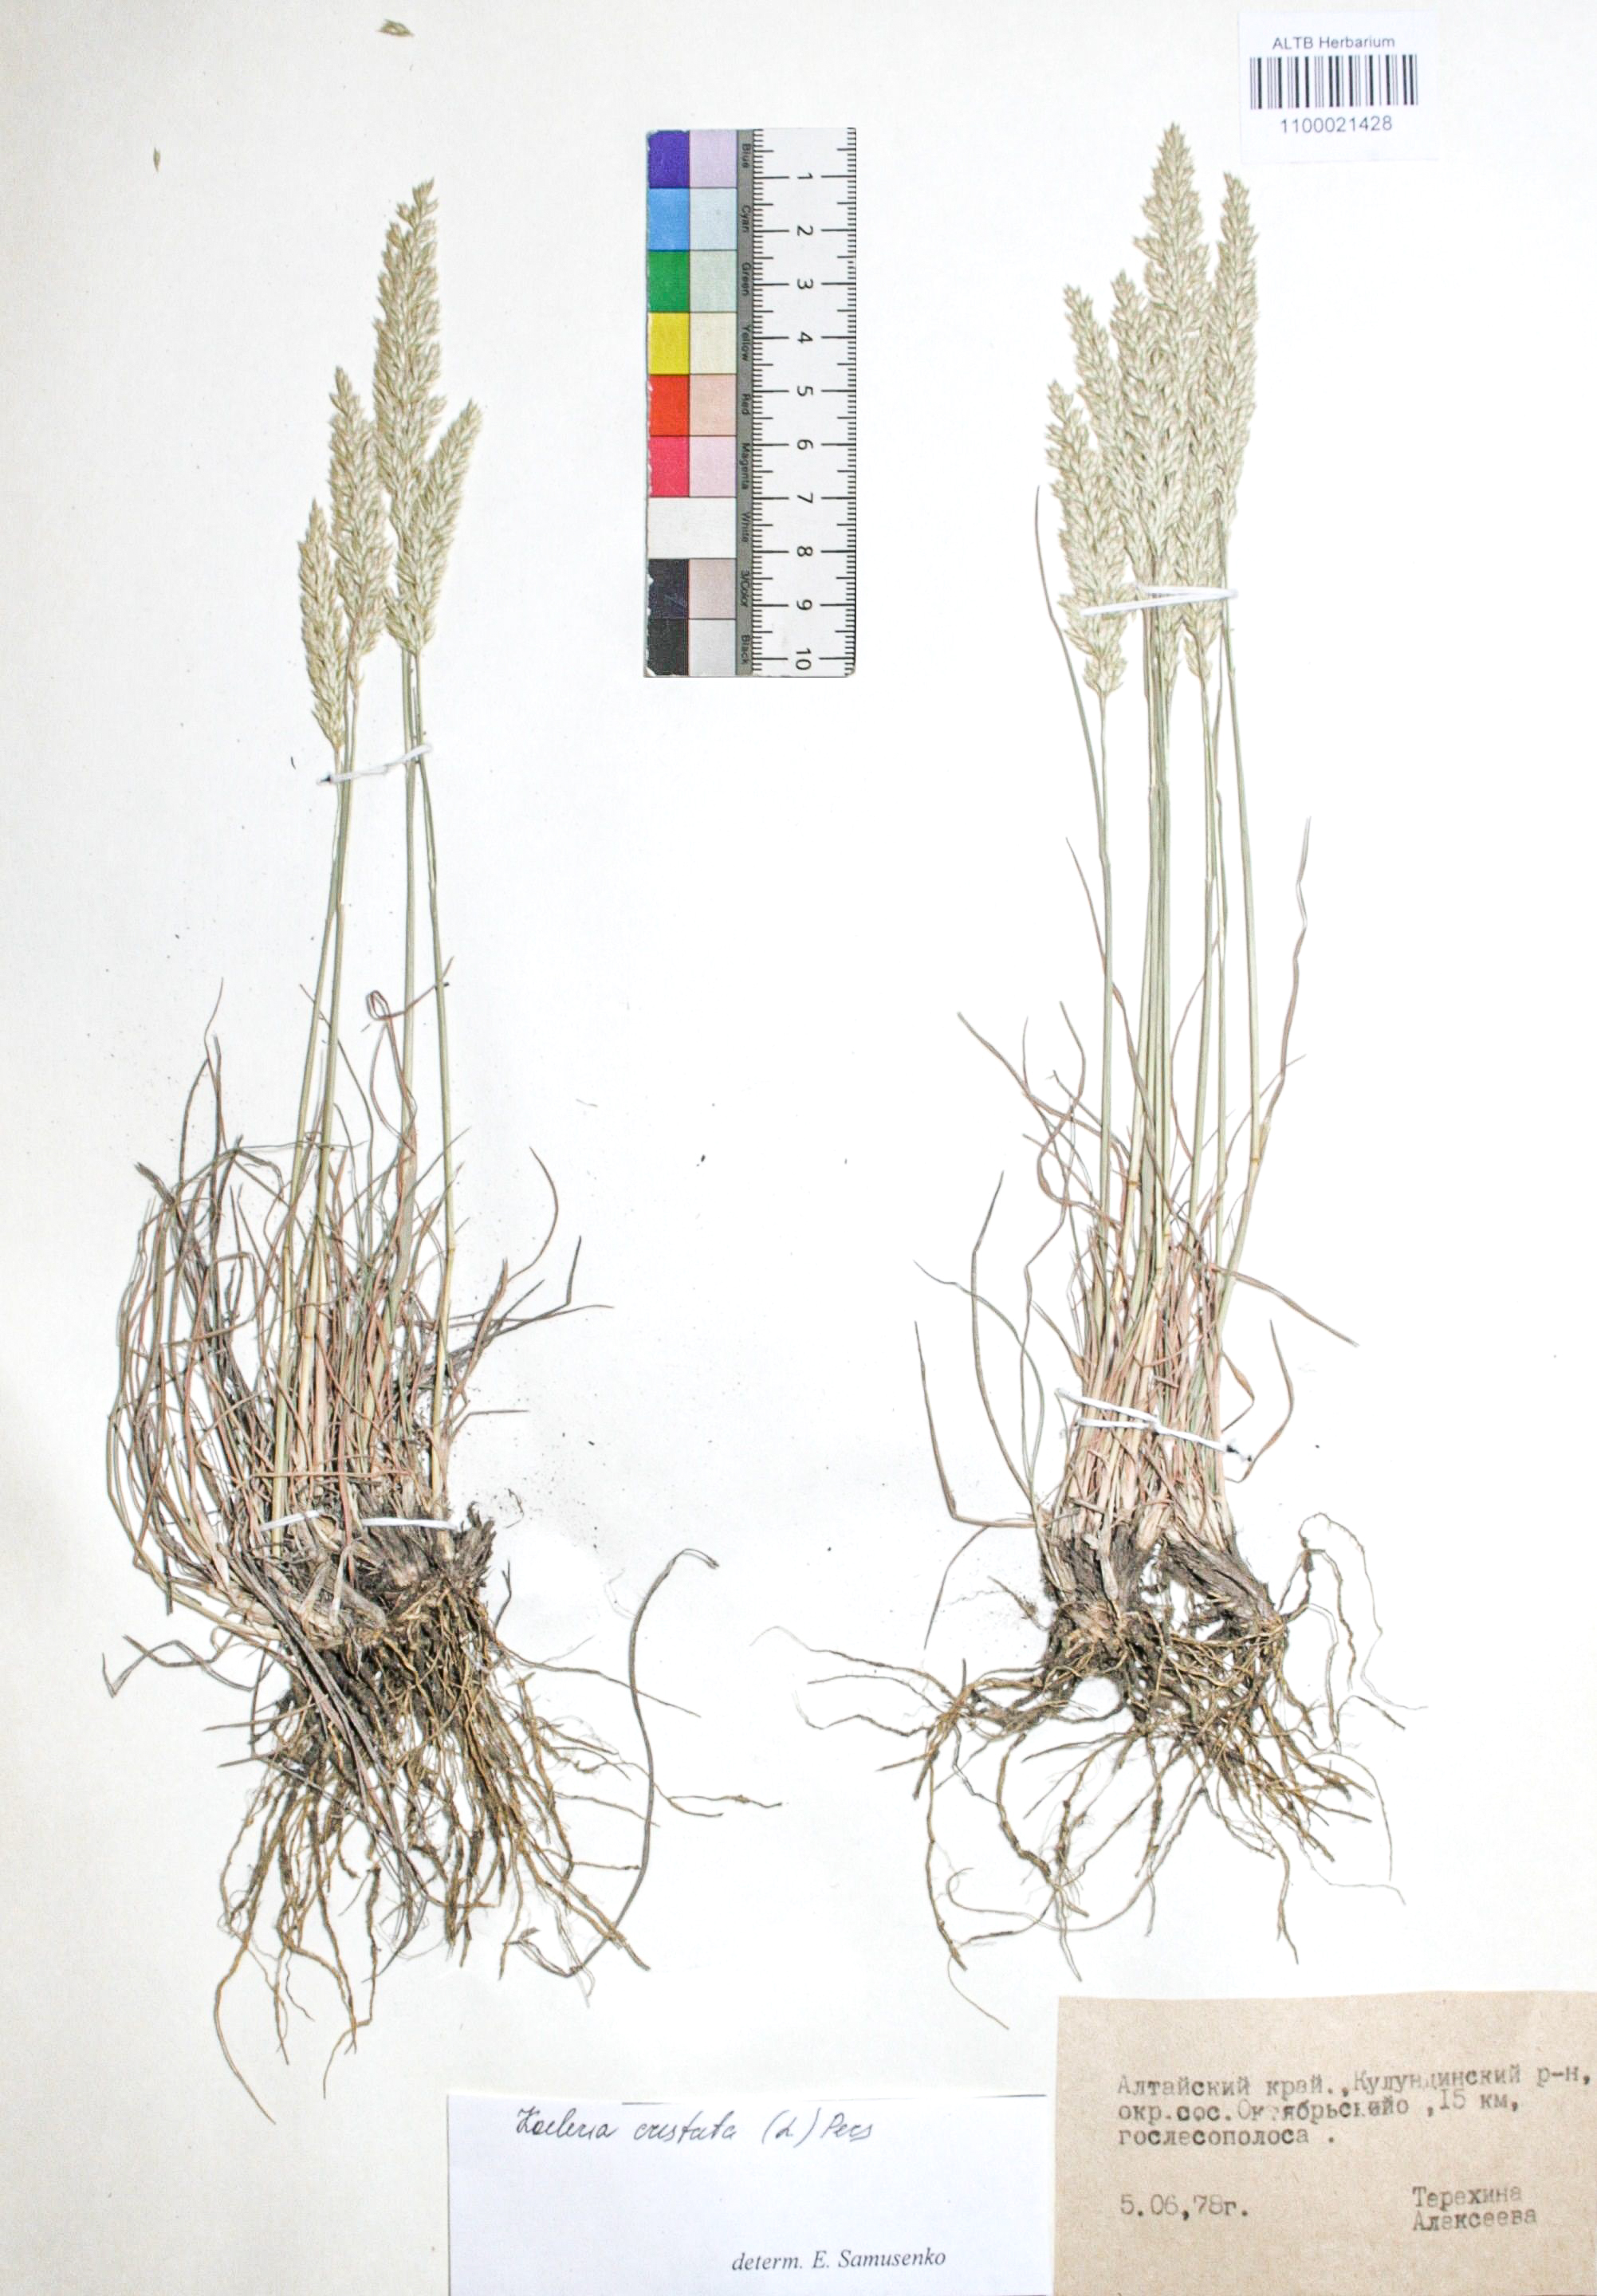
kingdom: Plantae
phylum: Tracheophyta
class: Liliopsida
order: Poales
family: Poaceae
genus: Koeleria
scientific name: Koeleria pyramidata
